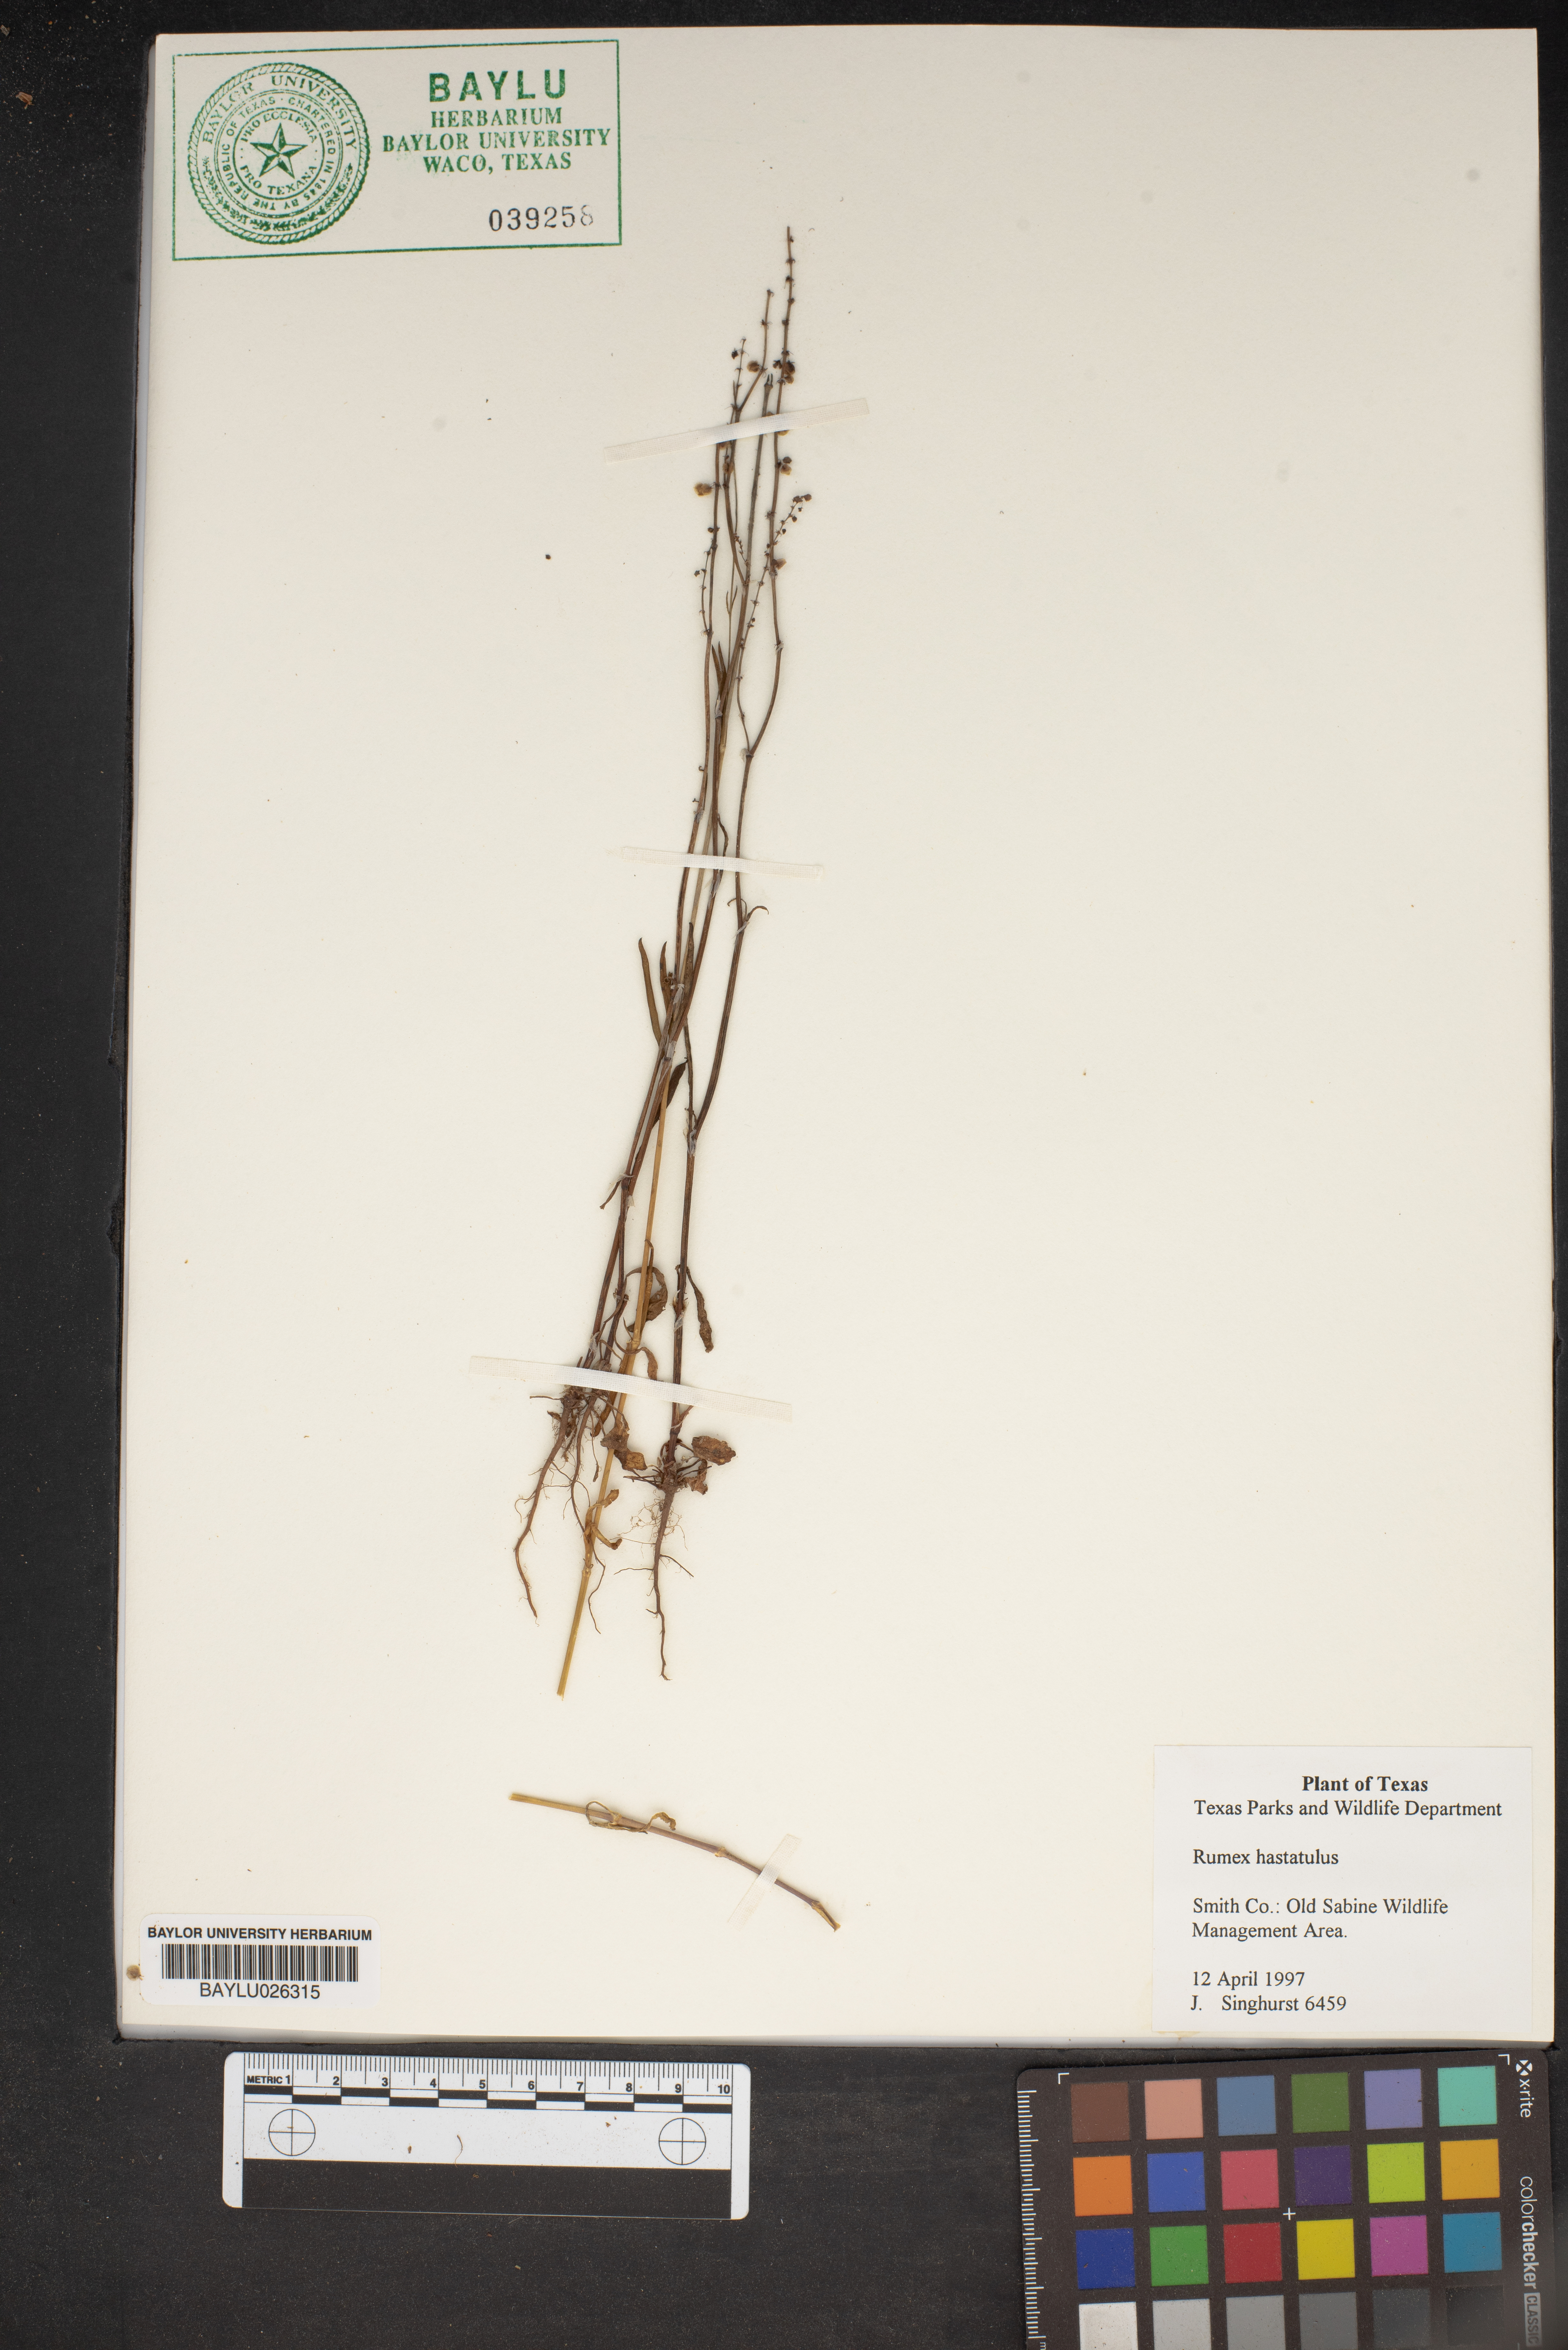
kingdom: Plantae
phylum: Tracheophyta
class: Magnoliopsida
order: Caryophyllales
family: Polygonaceae
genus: Rumex
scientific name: Rumex hastatulus
